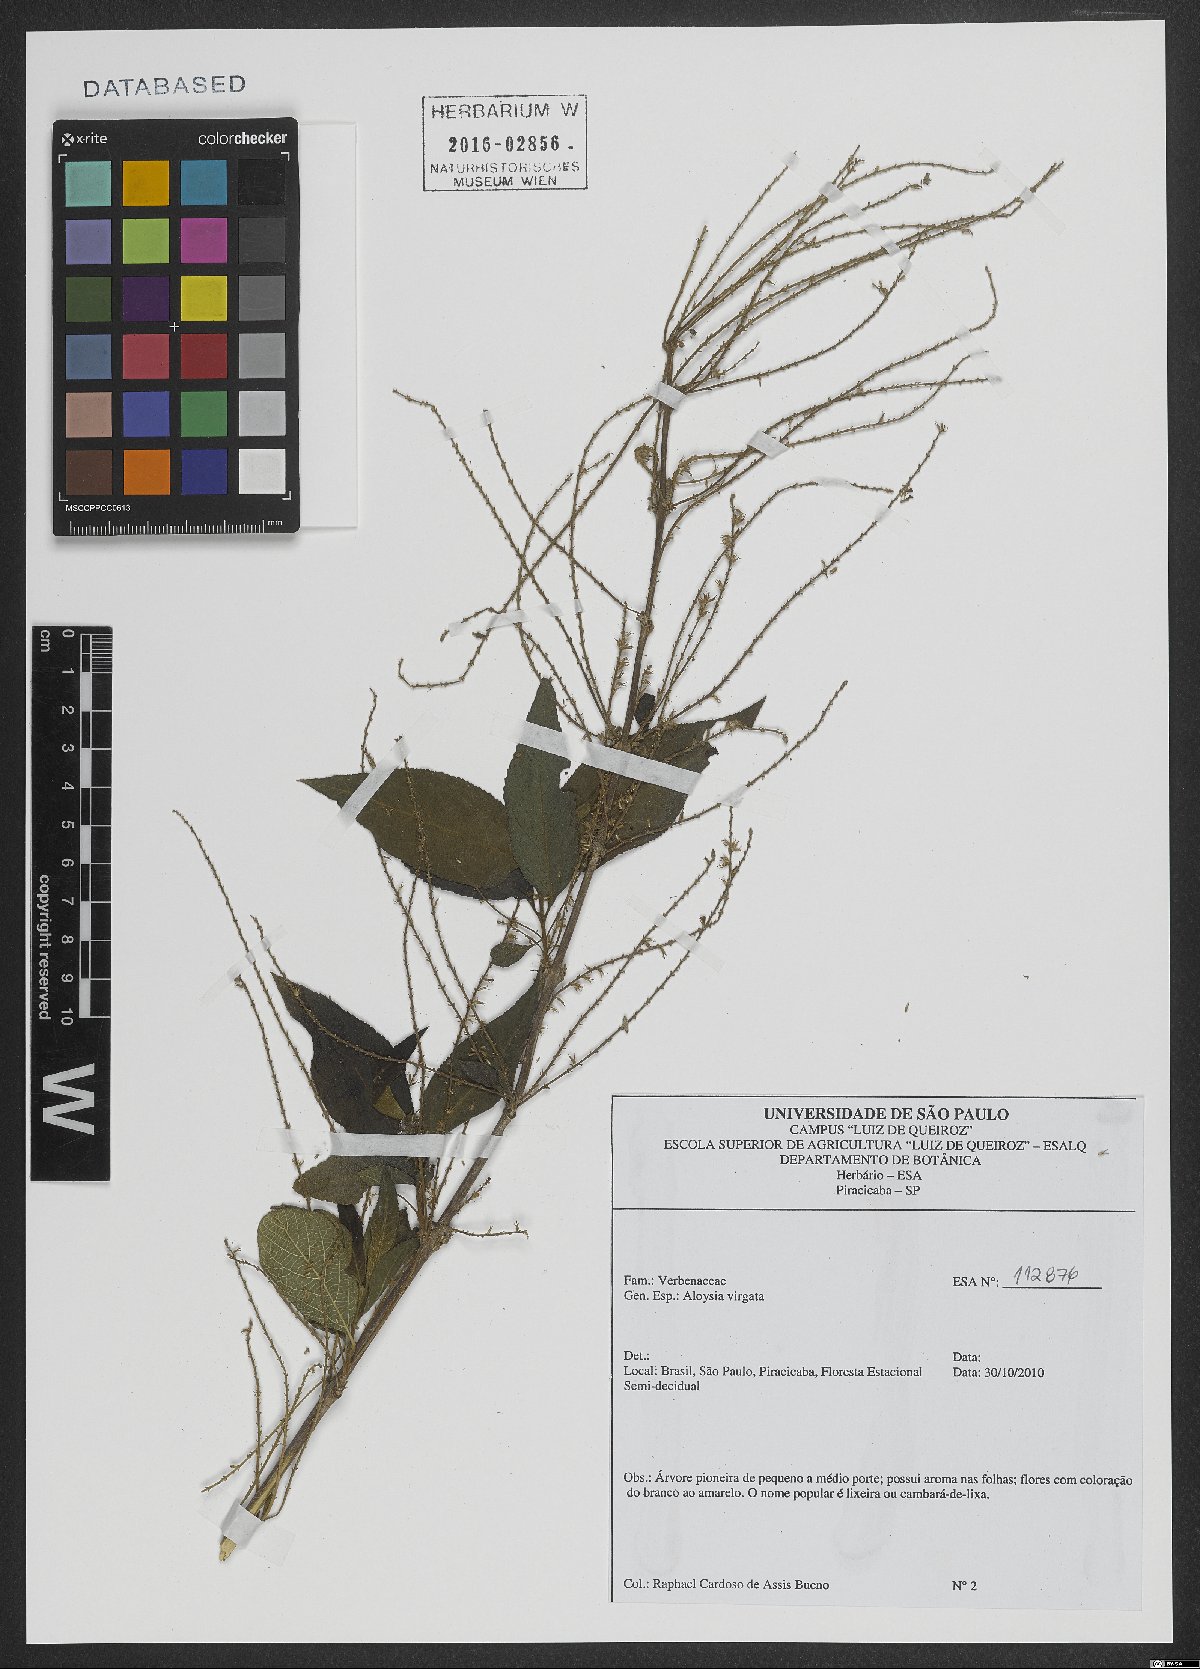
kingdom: Plantae
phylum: Tracheophyta
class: Magnoliopsida
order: Lamiales
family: Verbenaceae
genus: Aloysia
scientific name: Aloysia virgata
